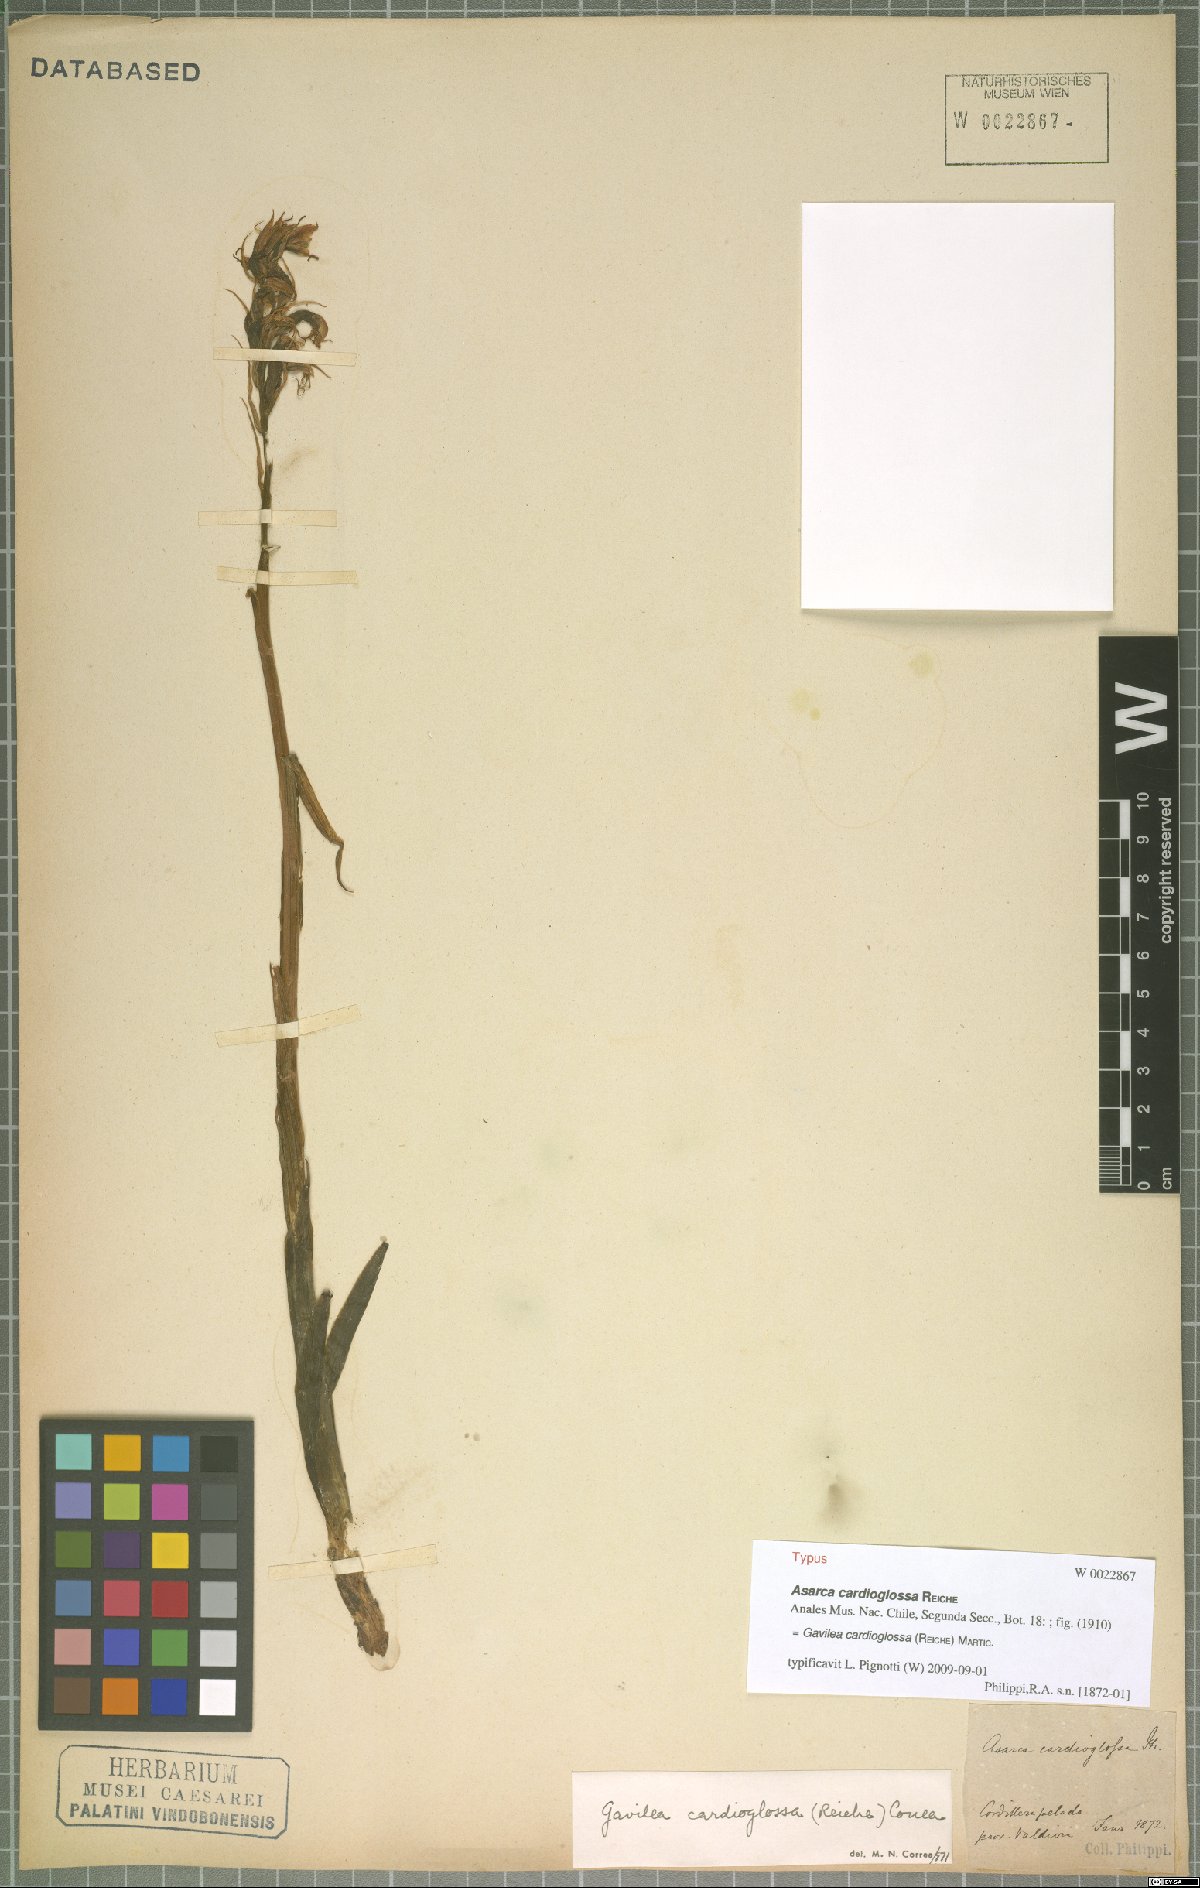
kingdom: Plantae
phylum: Tracheophyta
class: Liliopsida
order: Asparagales
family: Orchidaceae
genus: Gavilea
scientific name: Gavilea cardioglossa
